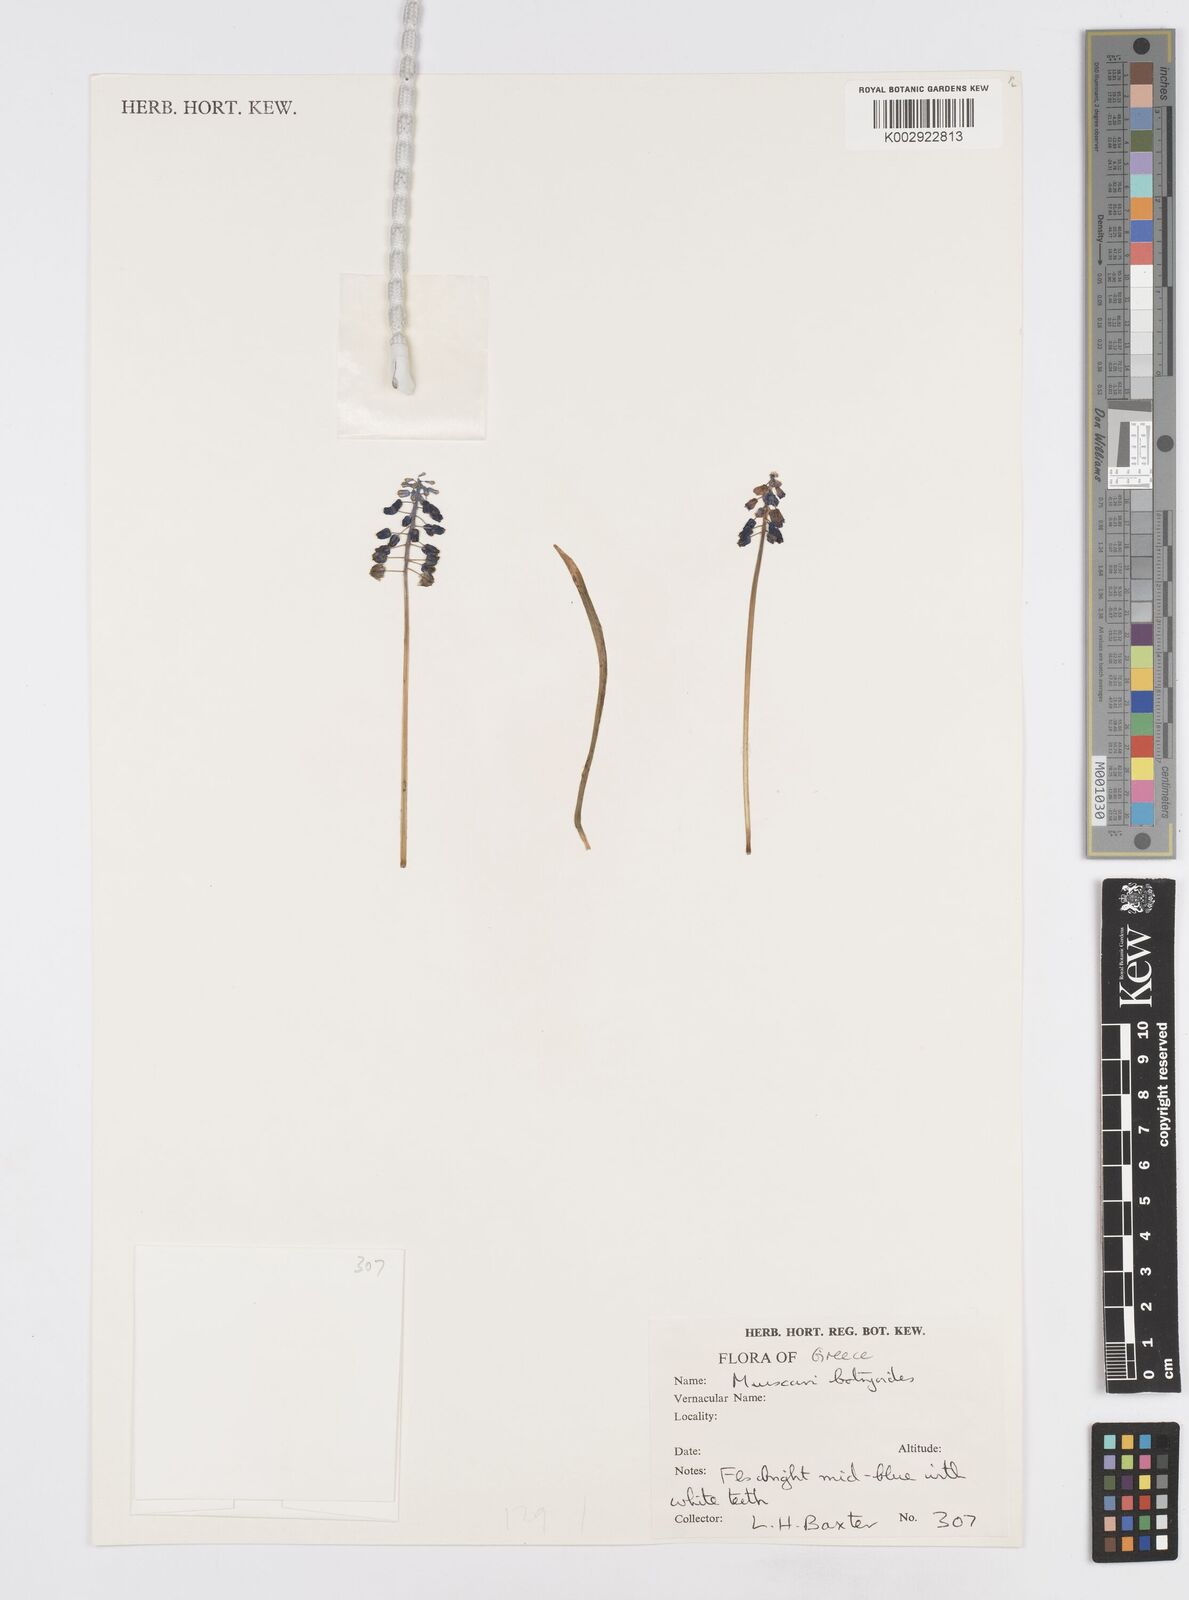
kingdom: Plantae
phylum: Tracheophyta
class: Liliopsida
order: Asparagales
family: Asparagaceae
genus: Muscari
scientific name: Muscari botryoides
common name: Compact grape-hyacinth
